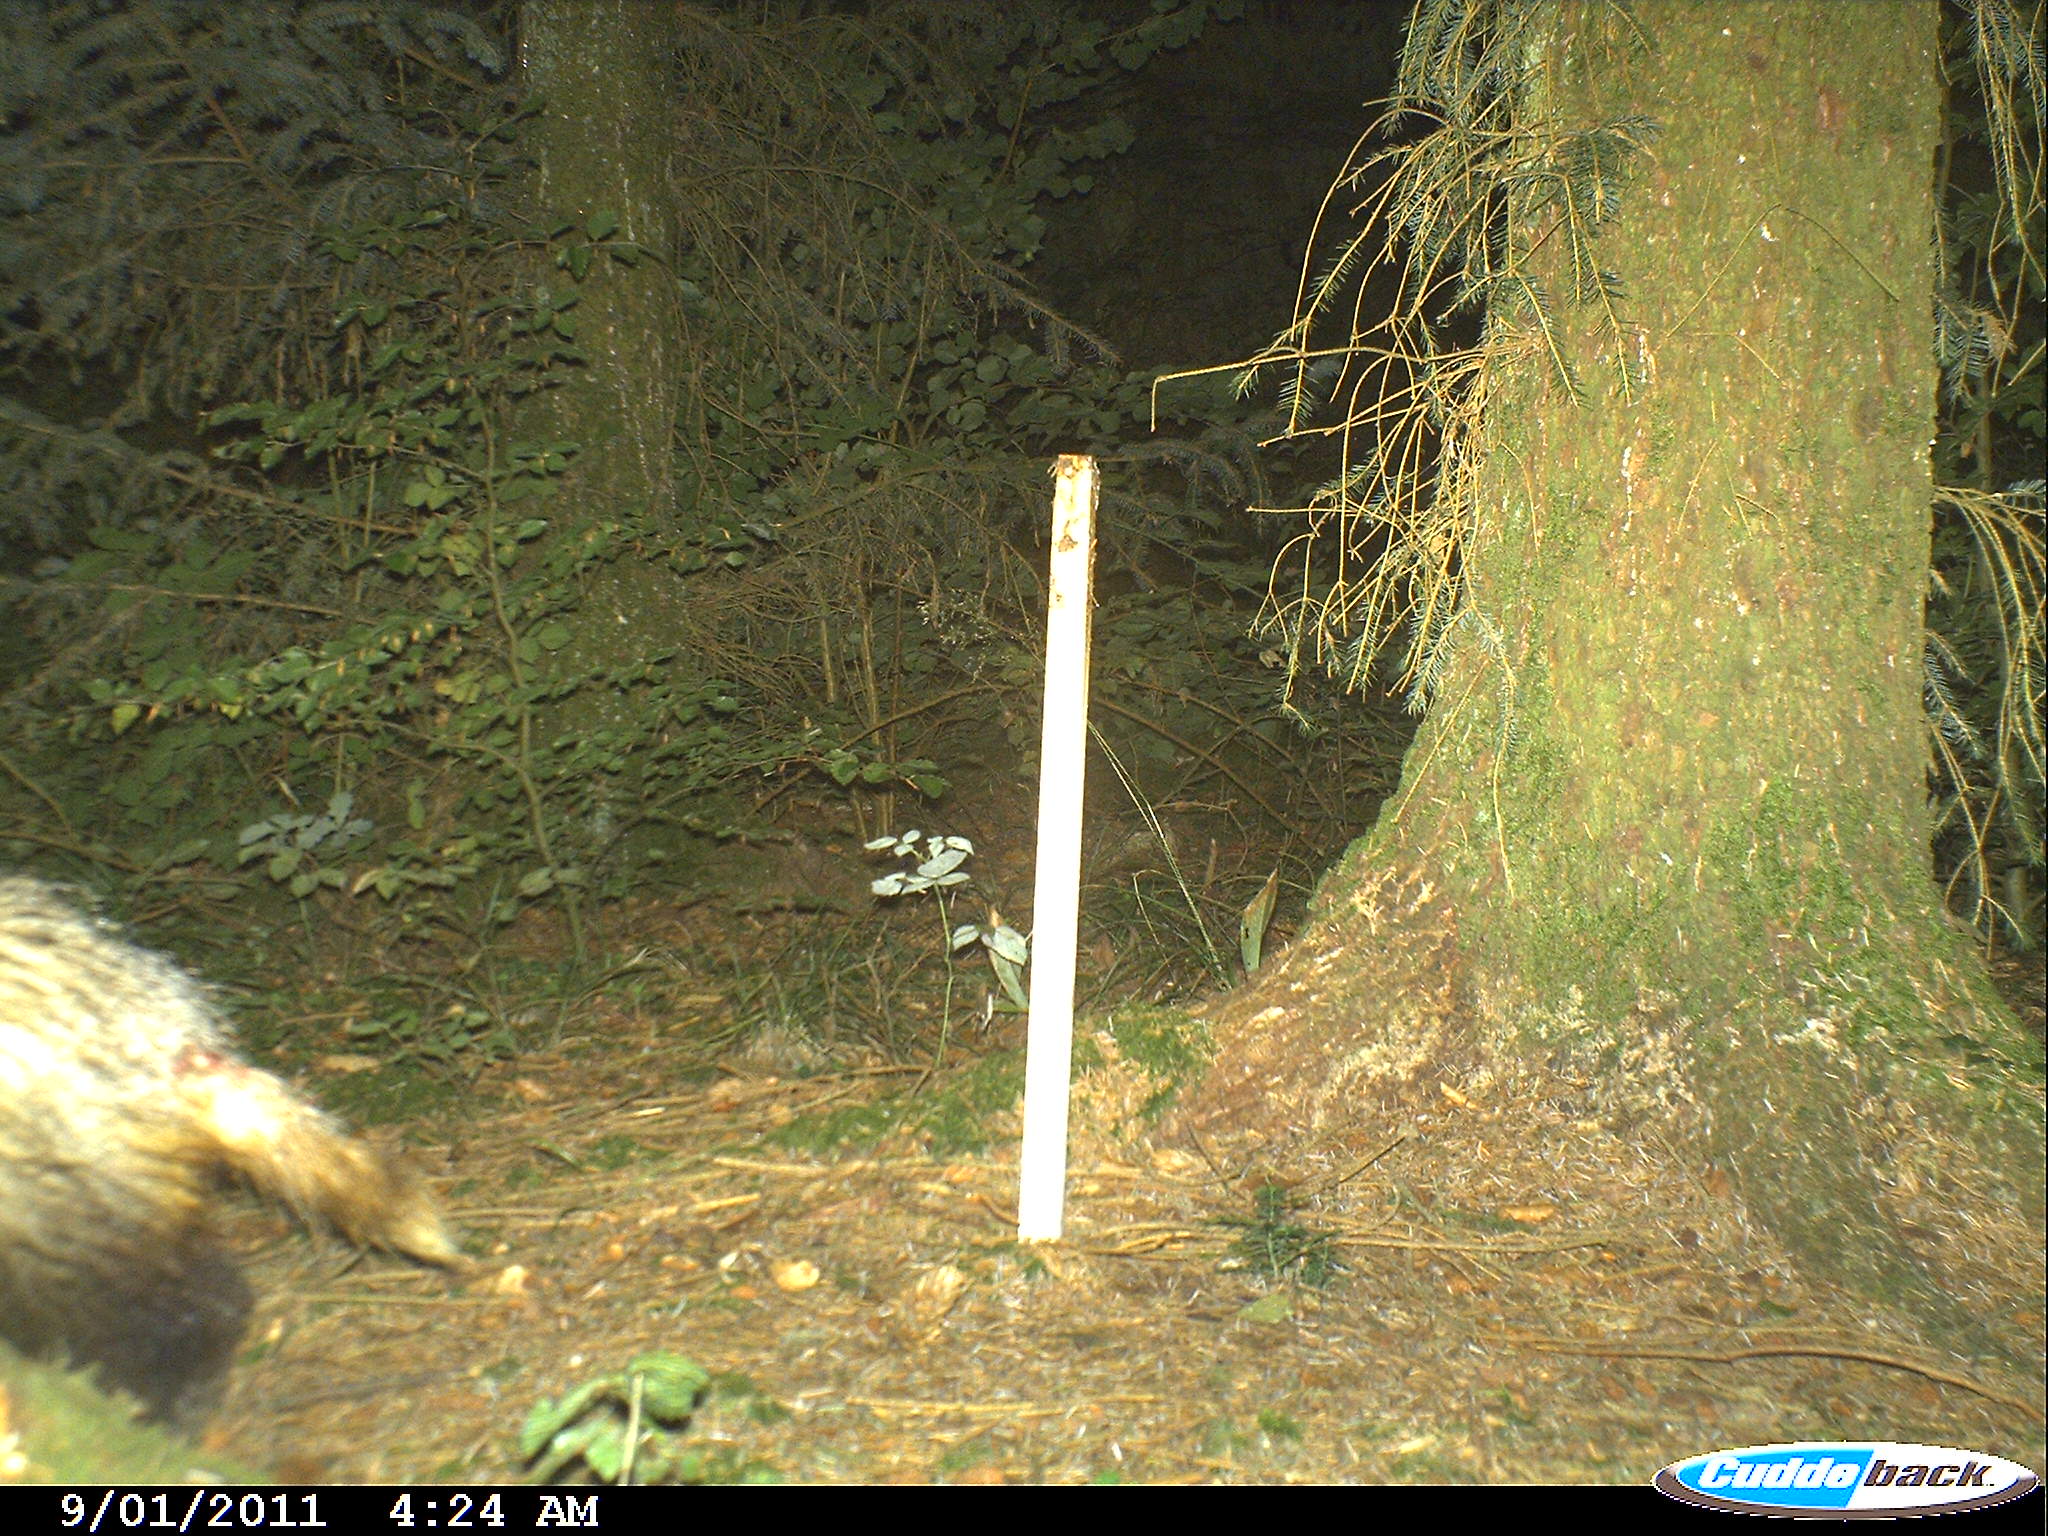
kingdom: Animalia
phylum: Chordata
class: Mammalia
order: Carnivora
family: Mustelidae
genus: Meles
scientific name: Meles meles
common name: Eurasian badger
